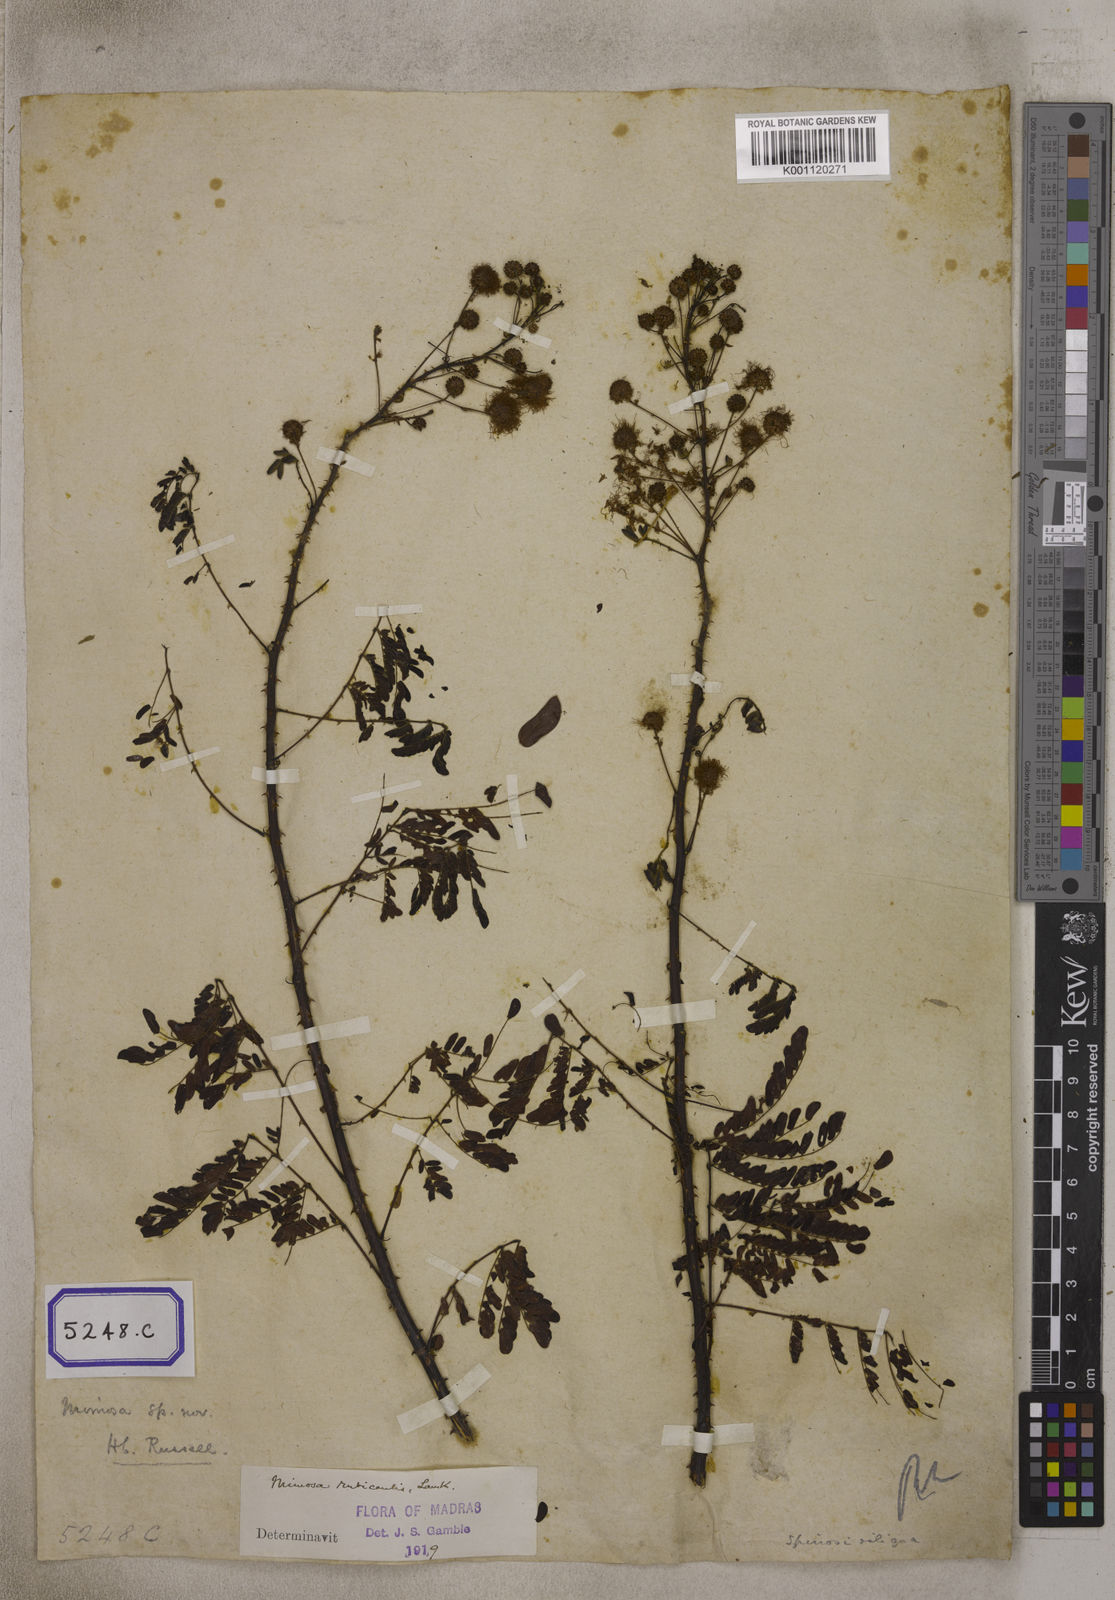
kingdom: Plantae
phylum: Tracheophyta
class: Magnoliopsida
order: Fabales
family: Fabaceae
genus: Senegalia
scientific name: Senegalia intsia
